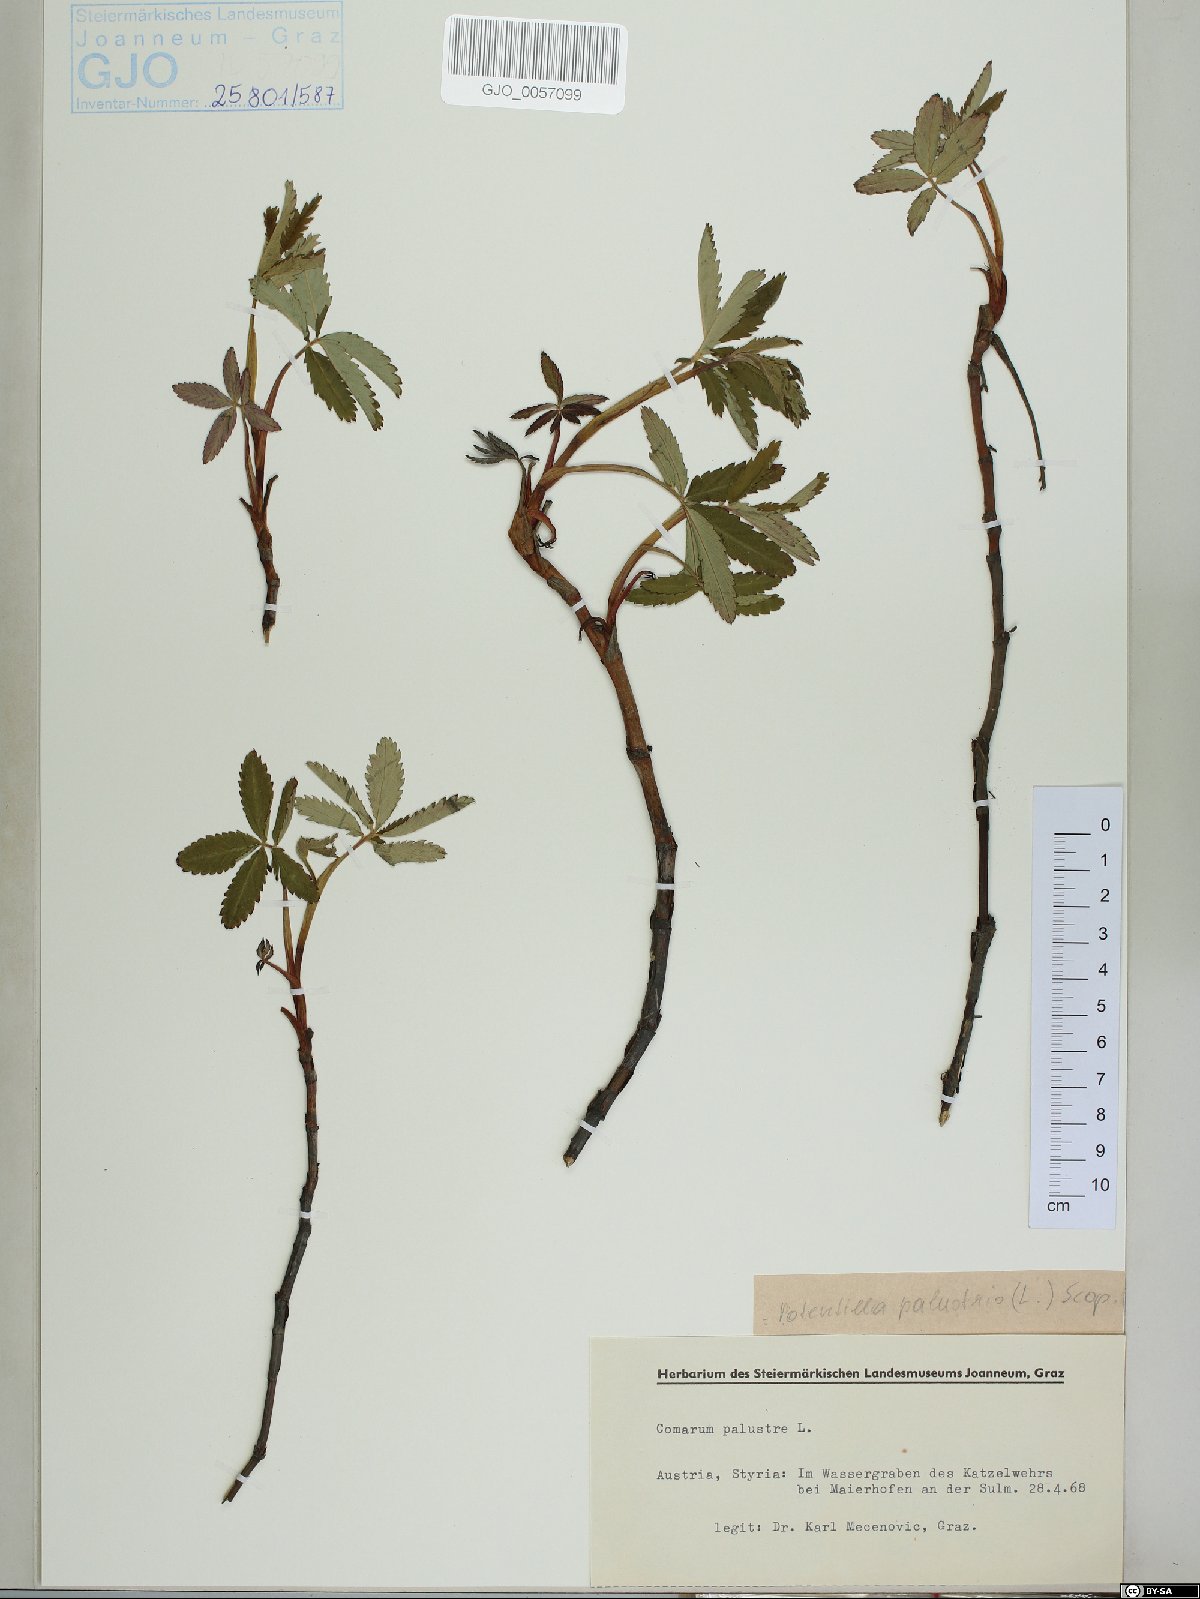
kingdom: Plantae
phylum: Tracheophyta
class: Magnoliopsida
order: Rosales
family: Rosaceae
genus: Comarum
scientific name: Comarum palustre
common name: Marsh cinquefoil
